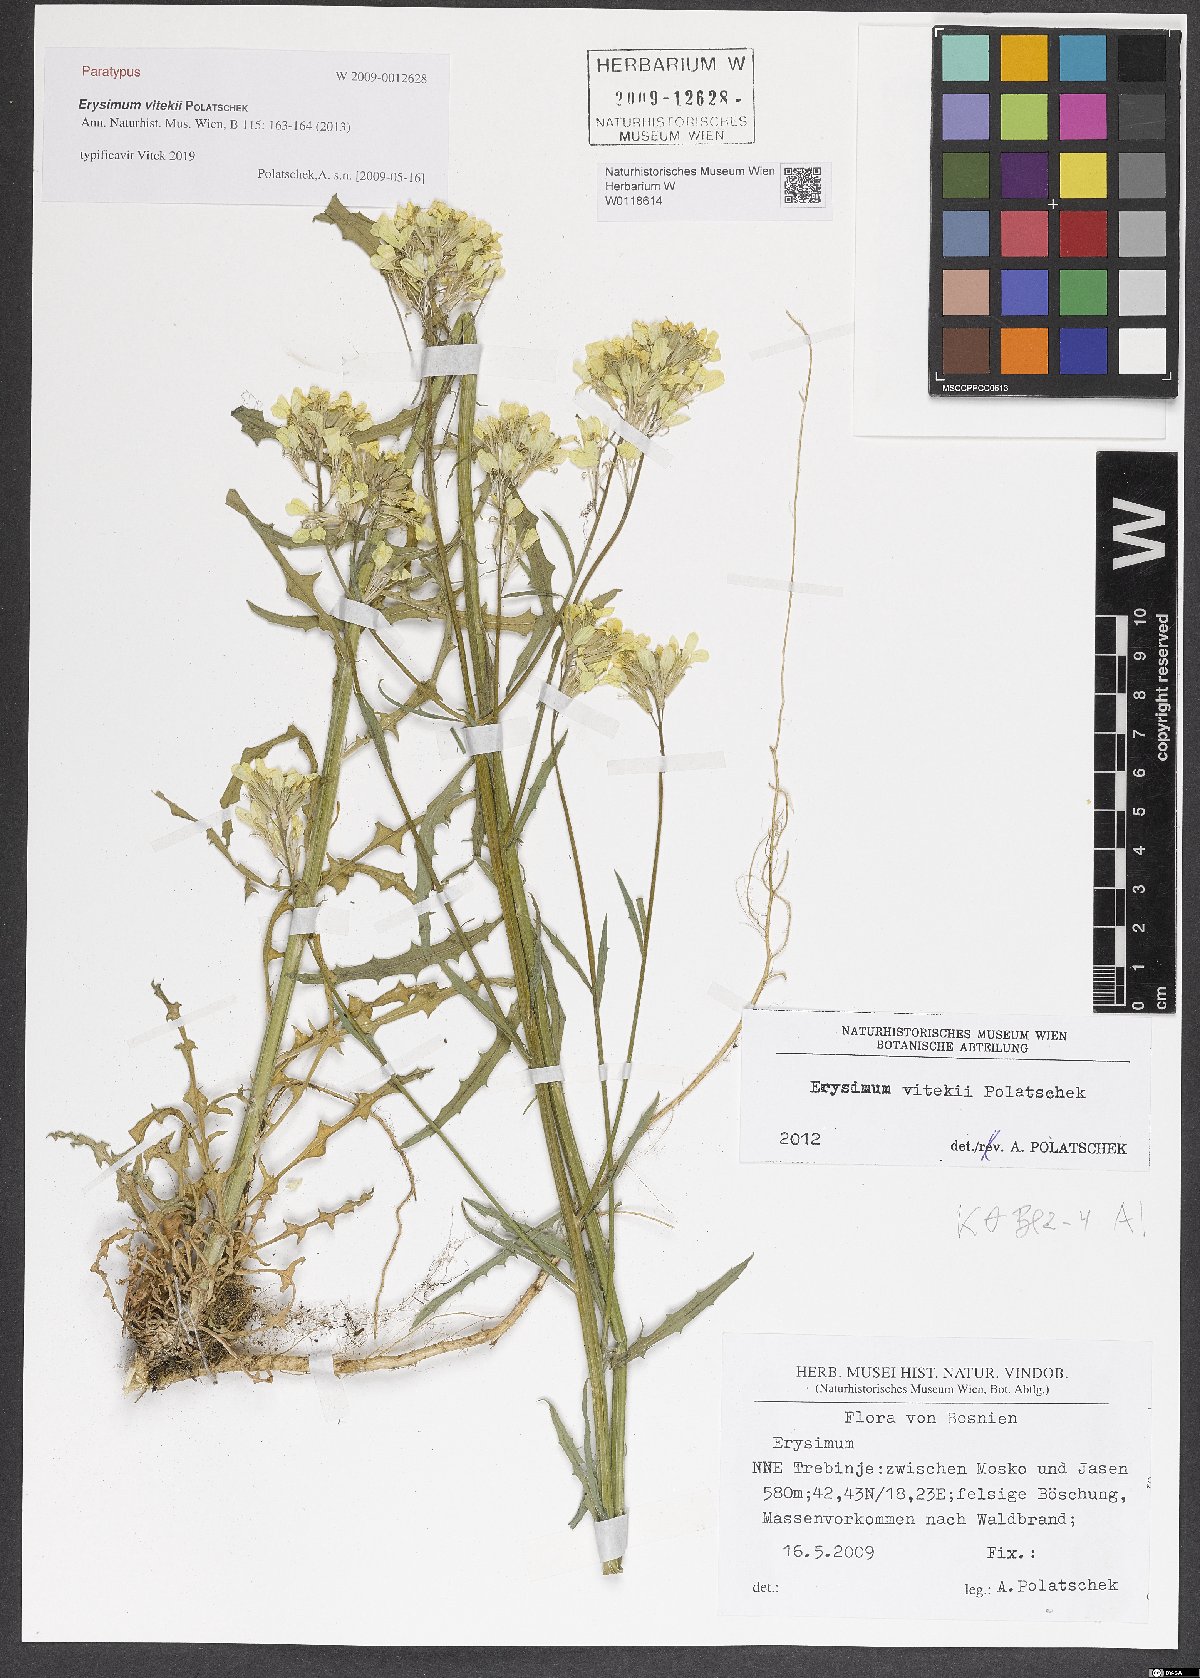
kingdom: Plantae
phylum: Tracheophyta
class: Magnoliopsida
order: Brassicales
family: Brassicaceae
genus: Erysimum
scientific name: Erysimum vitekii
